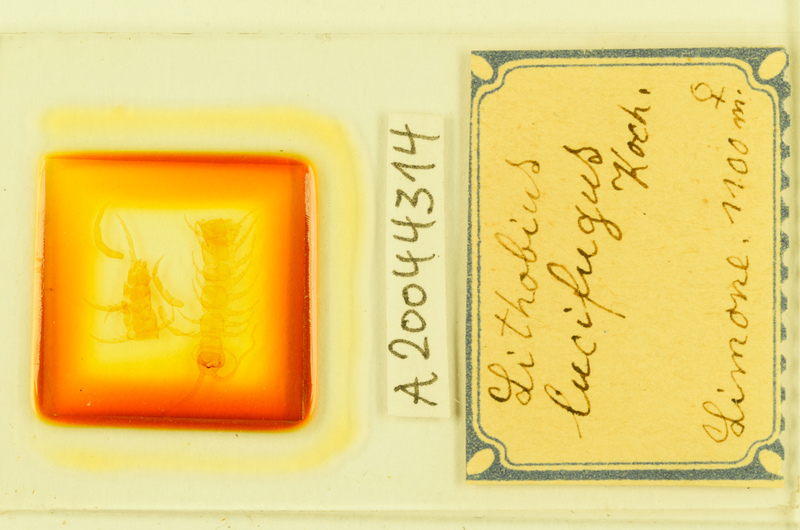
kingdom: Animalia
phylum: Arthropoda
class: Chilopoda
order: Lithobiomorpha
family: Lithobiidae
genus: Lithobius
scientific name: Lithobius lucifugus
